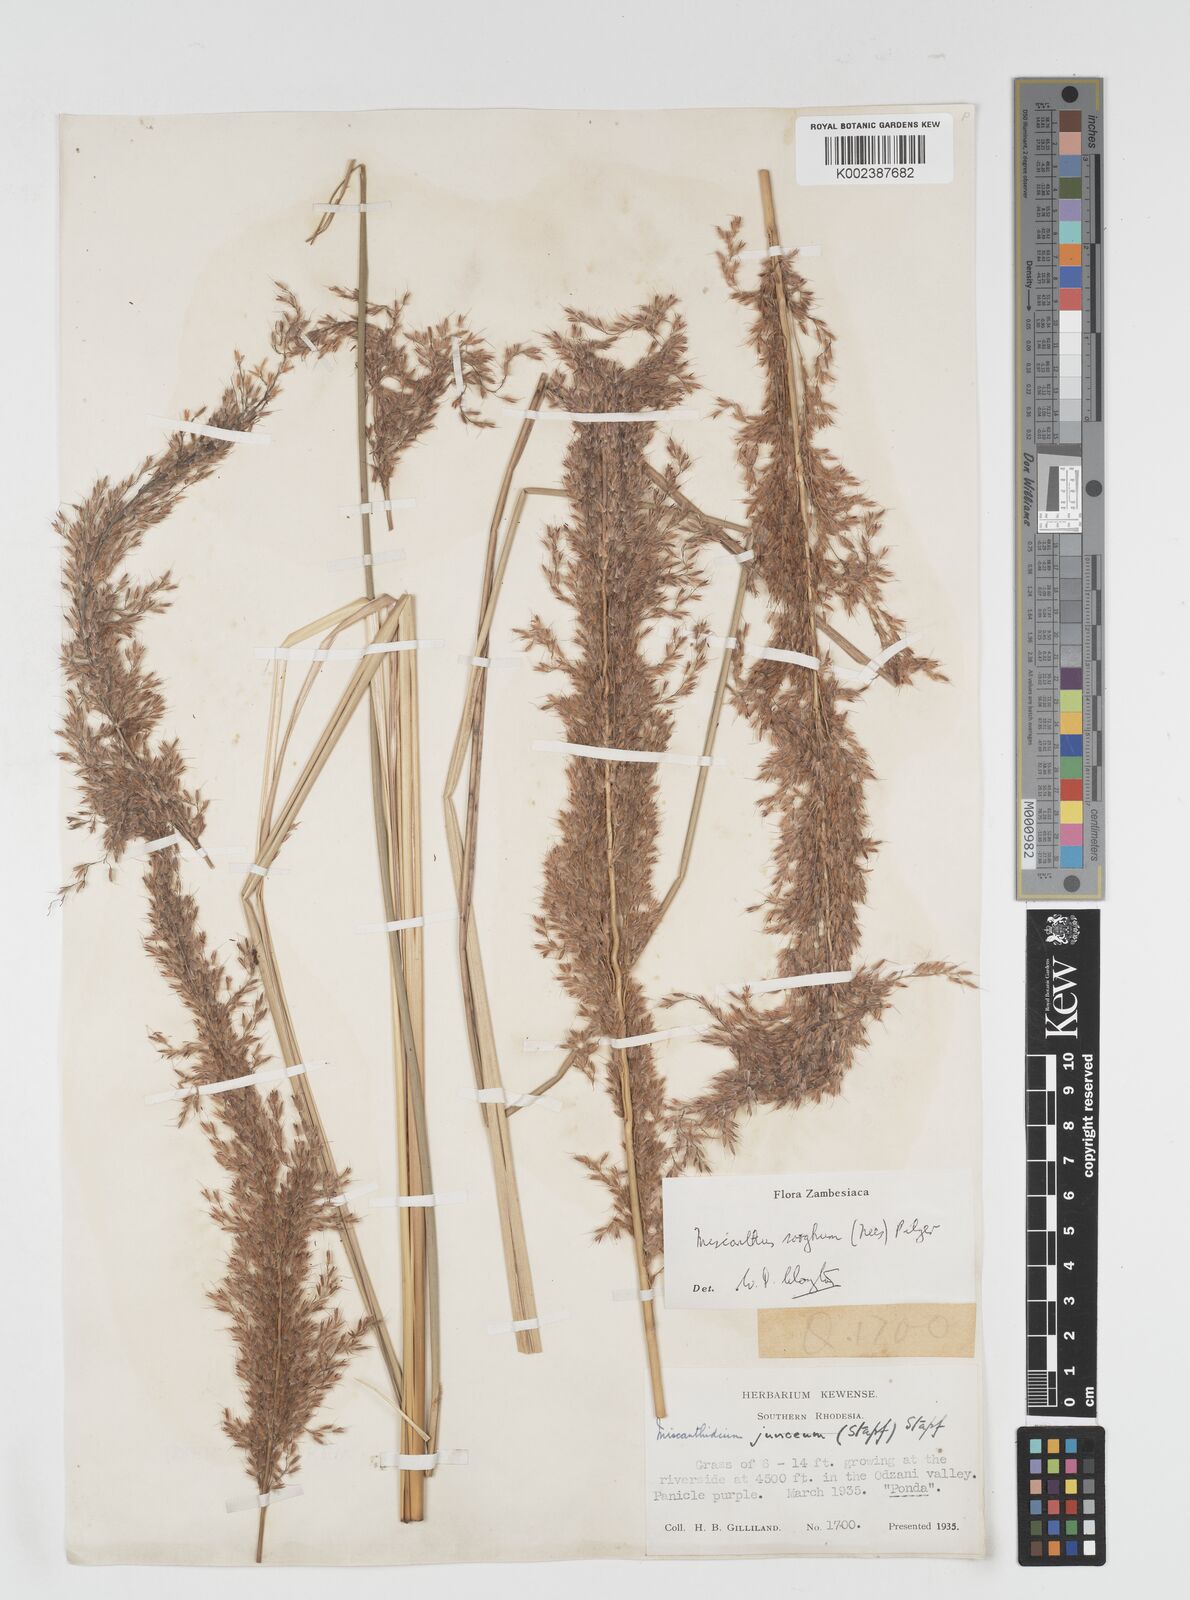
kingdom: Plantae
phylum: Tracheophyta
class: Liliopsida
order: Poales
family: Poaceae
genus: Miscanthus
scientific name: Miscanthus ecklonii
